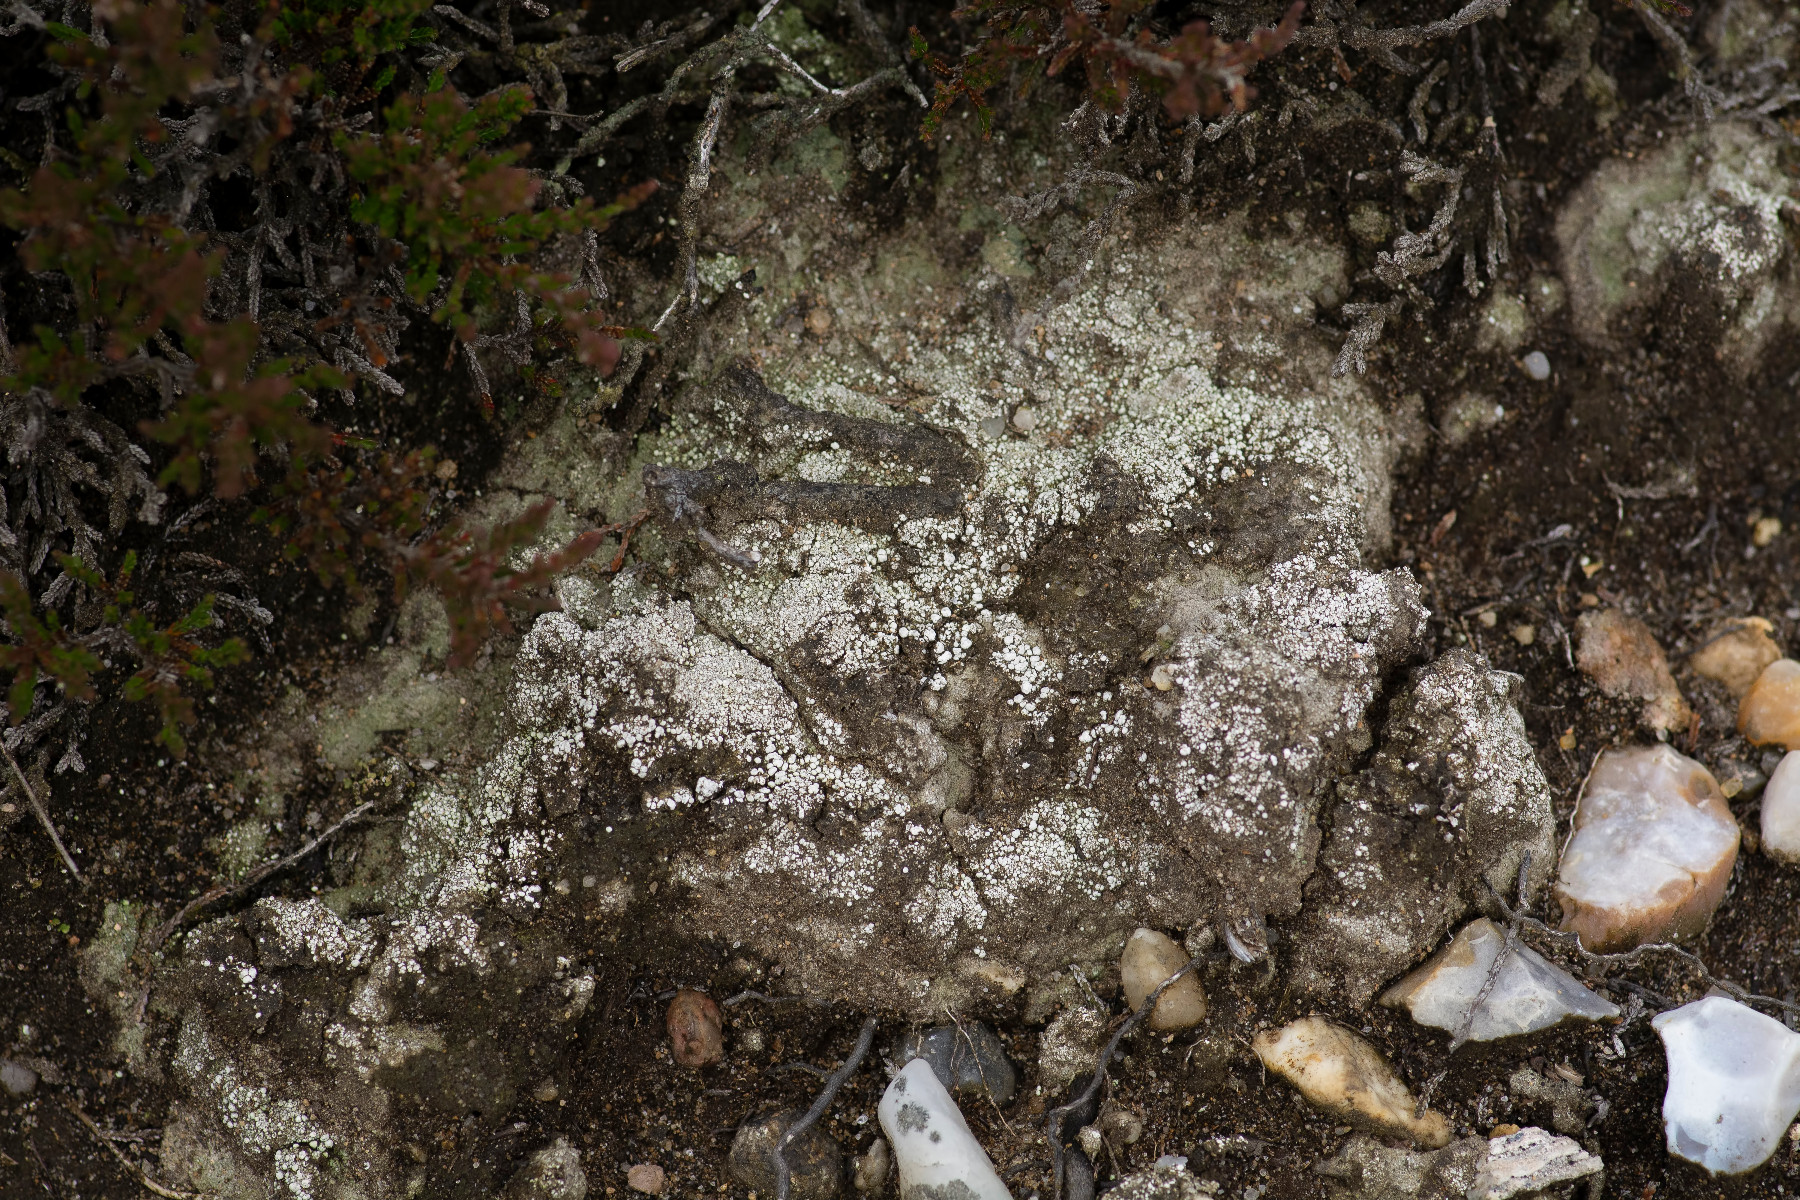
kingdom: Fungi
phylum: Ascomycota
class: Lecanoromycetes
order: Pertusariales
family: Icmadophilaceae
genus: Dibaeis
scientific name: Dibaeis baeomyces
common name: rosenrød stilav
